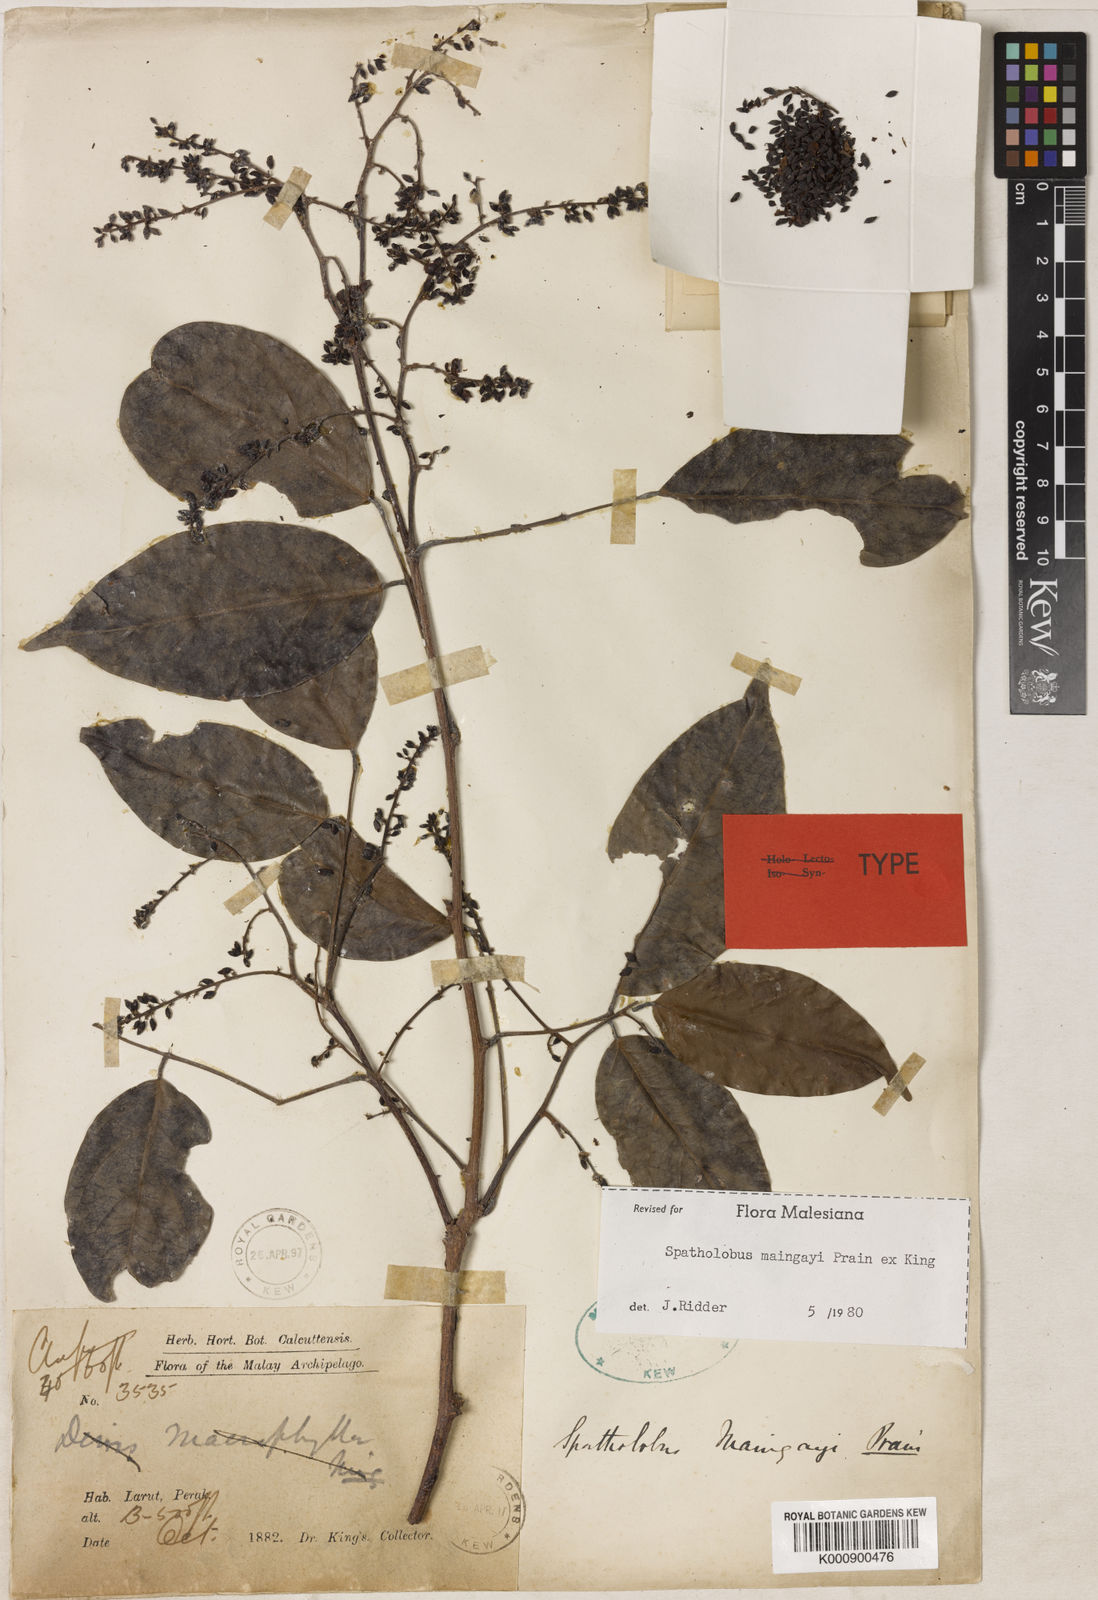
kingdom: Plantae
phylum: Tracheophyta
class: Magnoliopsida
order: Fabales
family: Fabaceae
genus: Spatholobus
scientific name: Spatholobus
